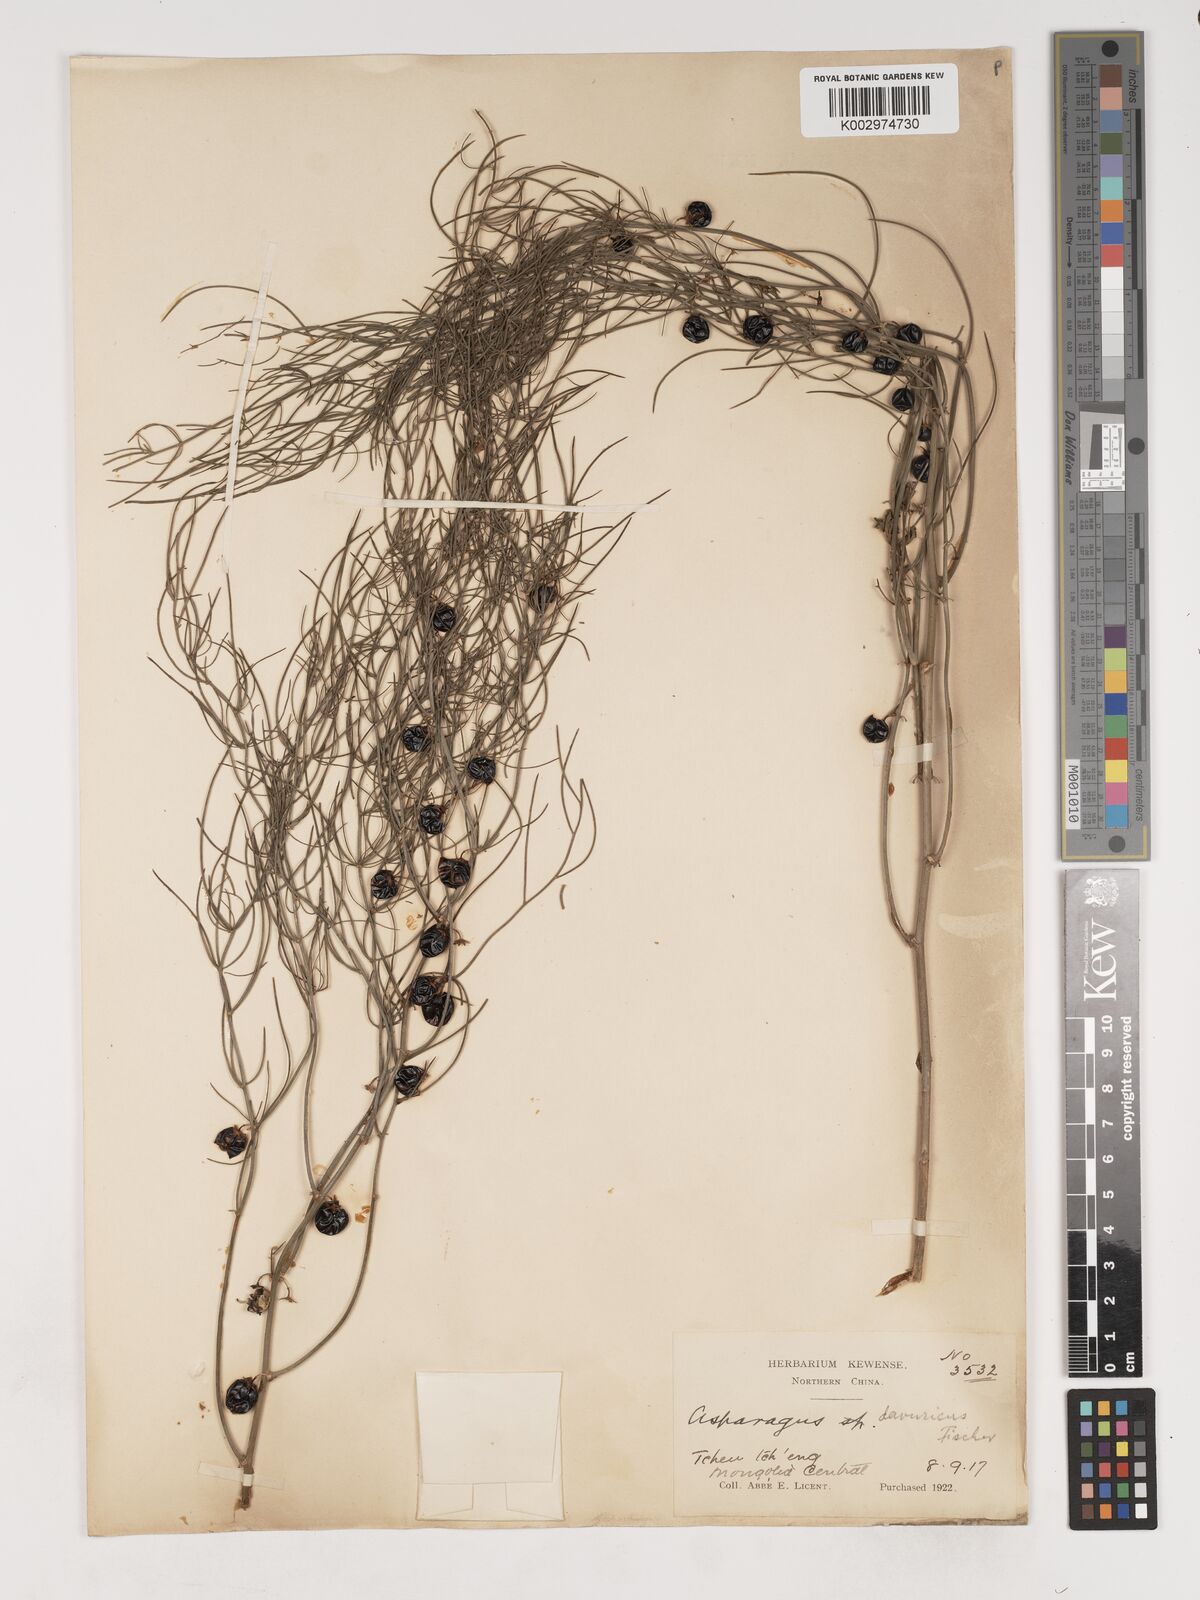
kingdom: Plantae
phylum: Tracheophyta
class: Liliopsida
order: Asparagales
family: Asparagaceae
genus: Asparagus
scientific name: Asparagus dauricus
